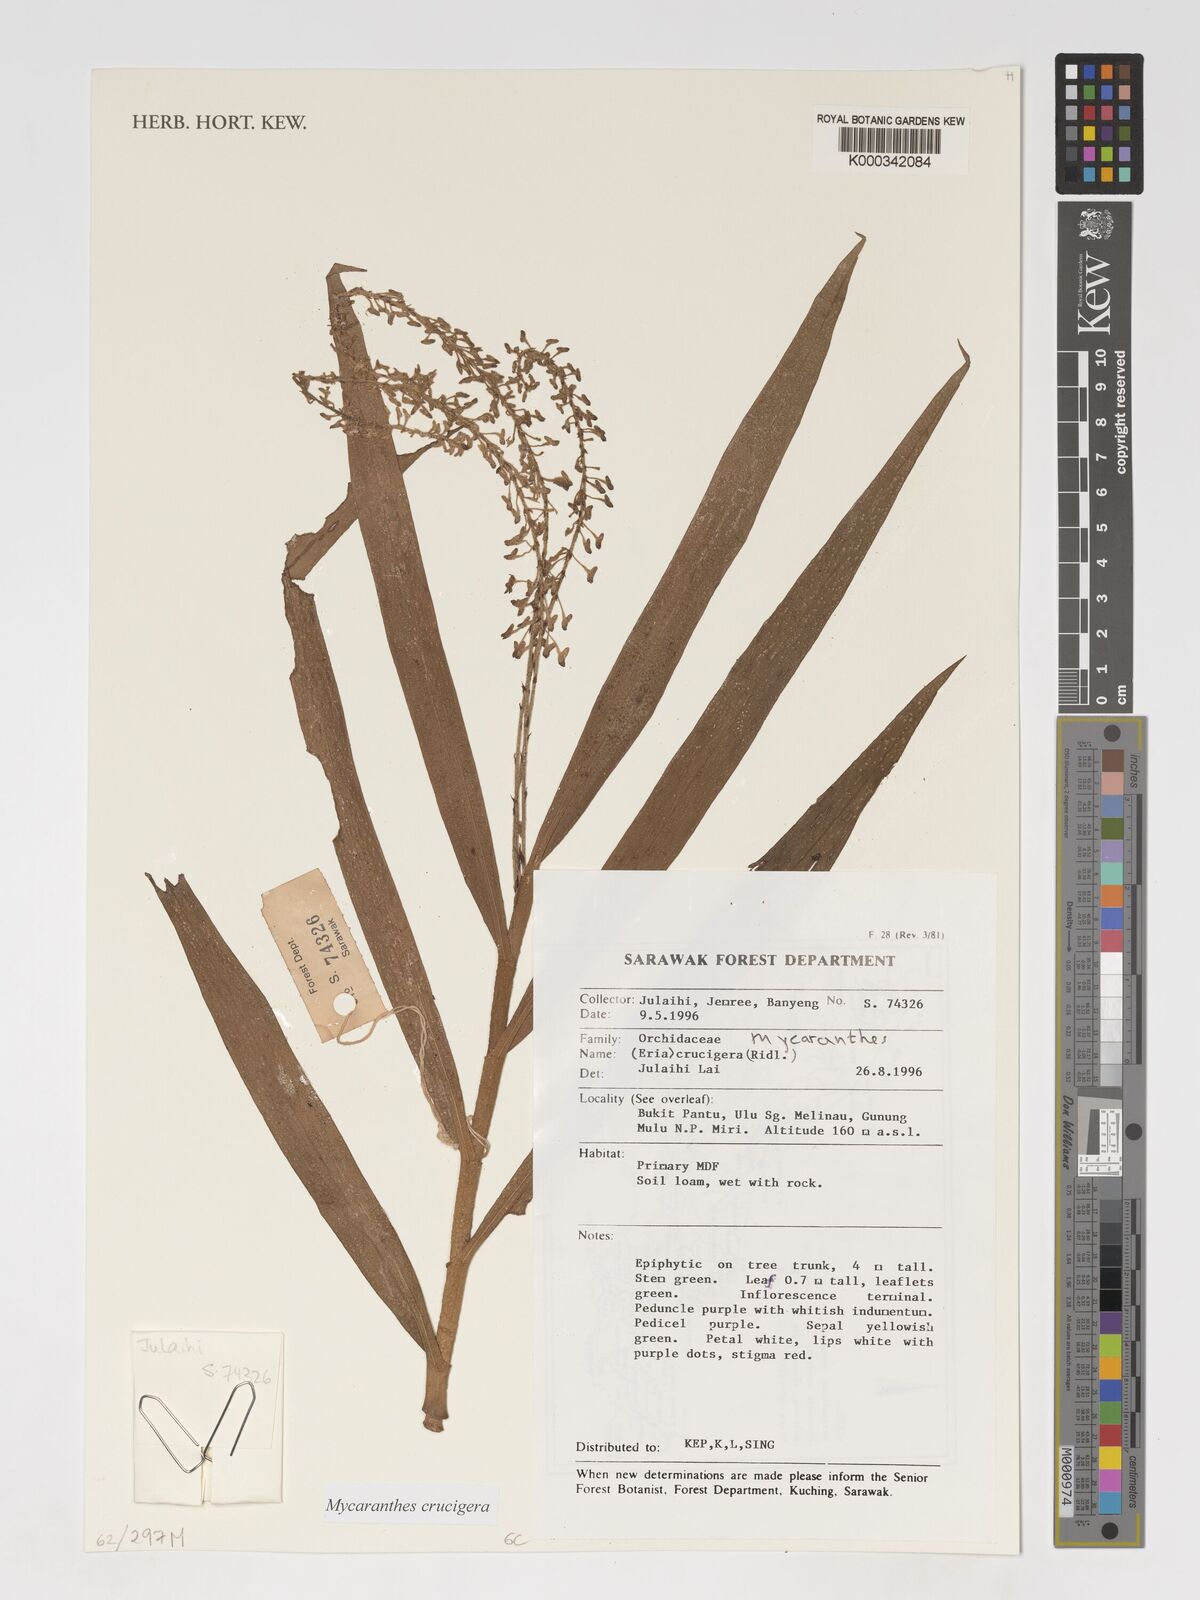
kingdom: Plantae
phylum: Tracheophyta
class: Liliopsida
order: Asparagales
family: Orchidaceae
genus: Mycaranthes
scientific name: Mycaranthes crucigera
